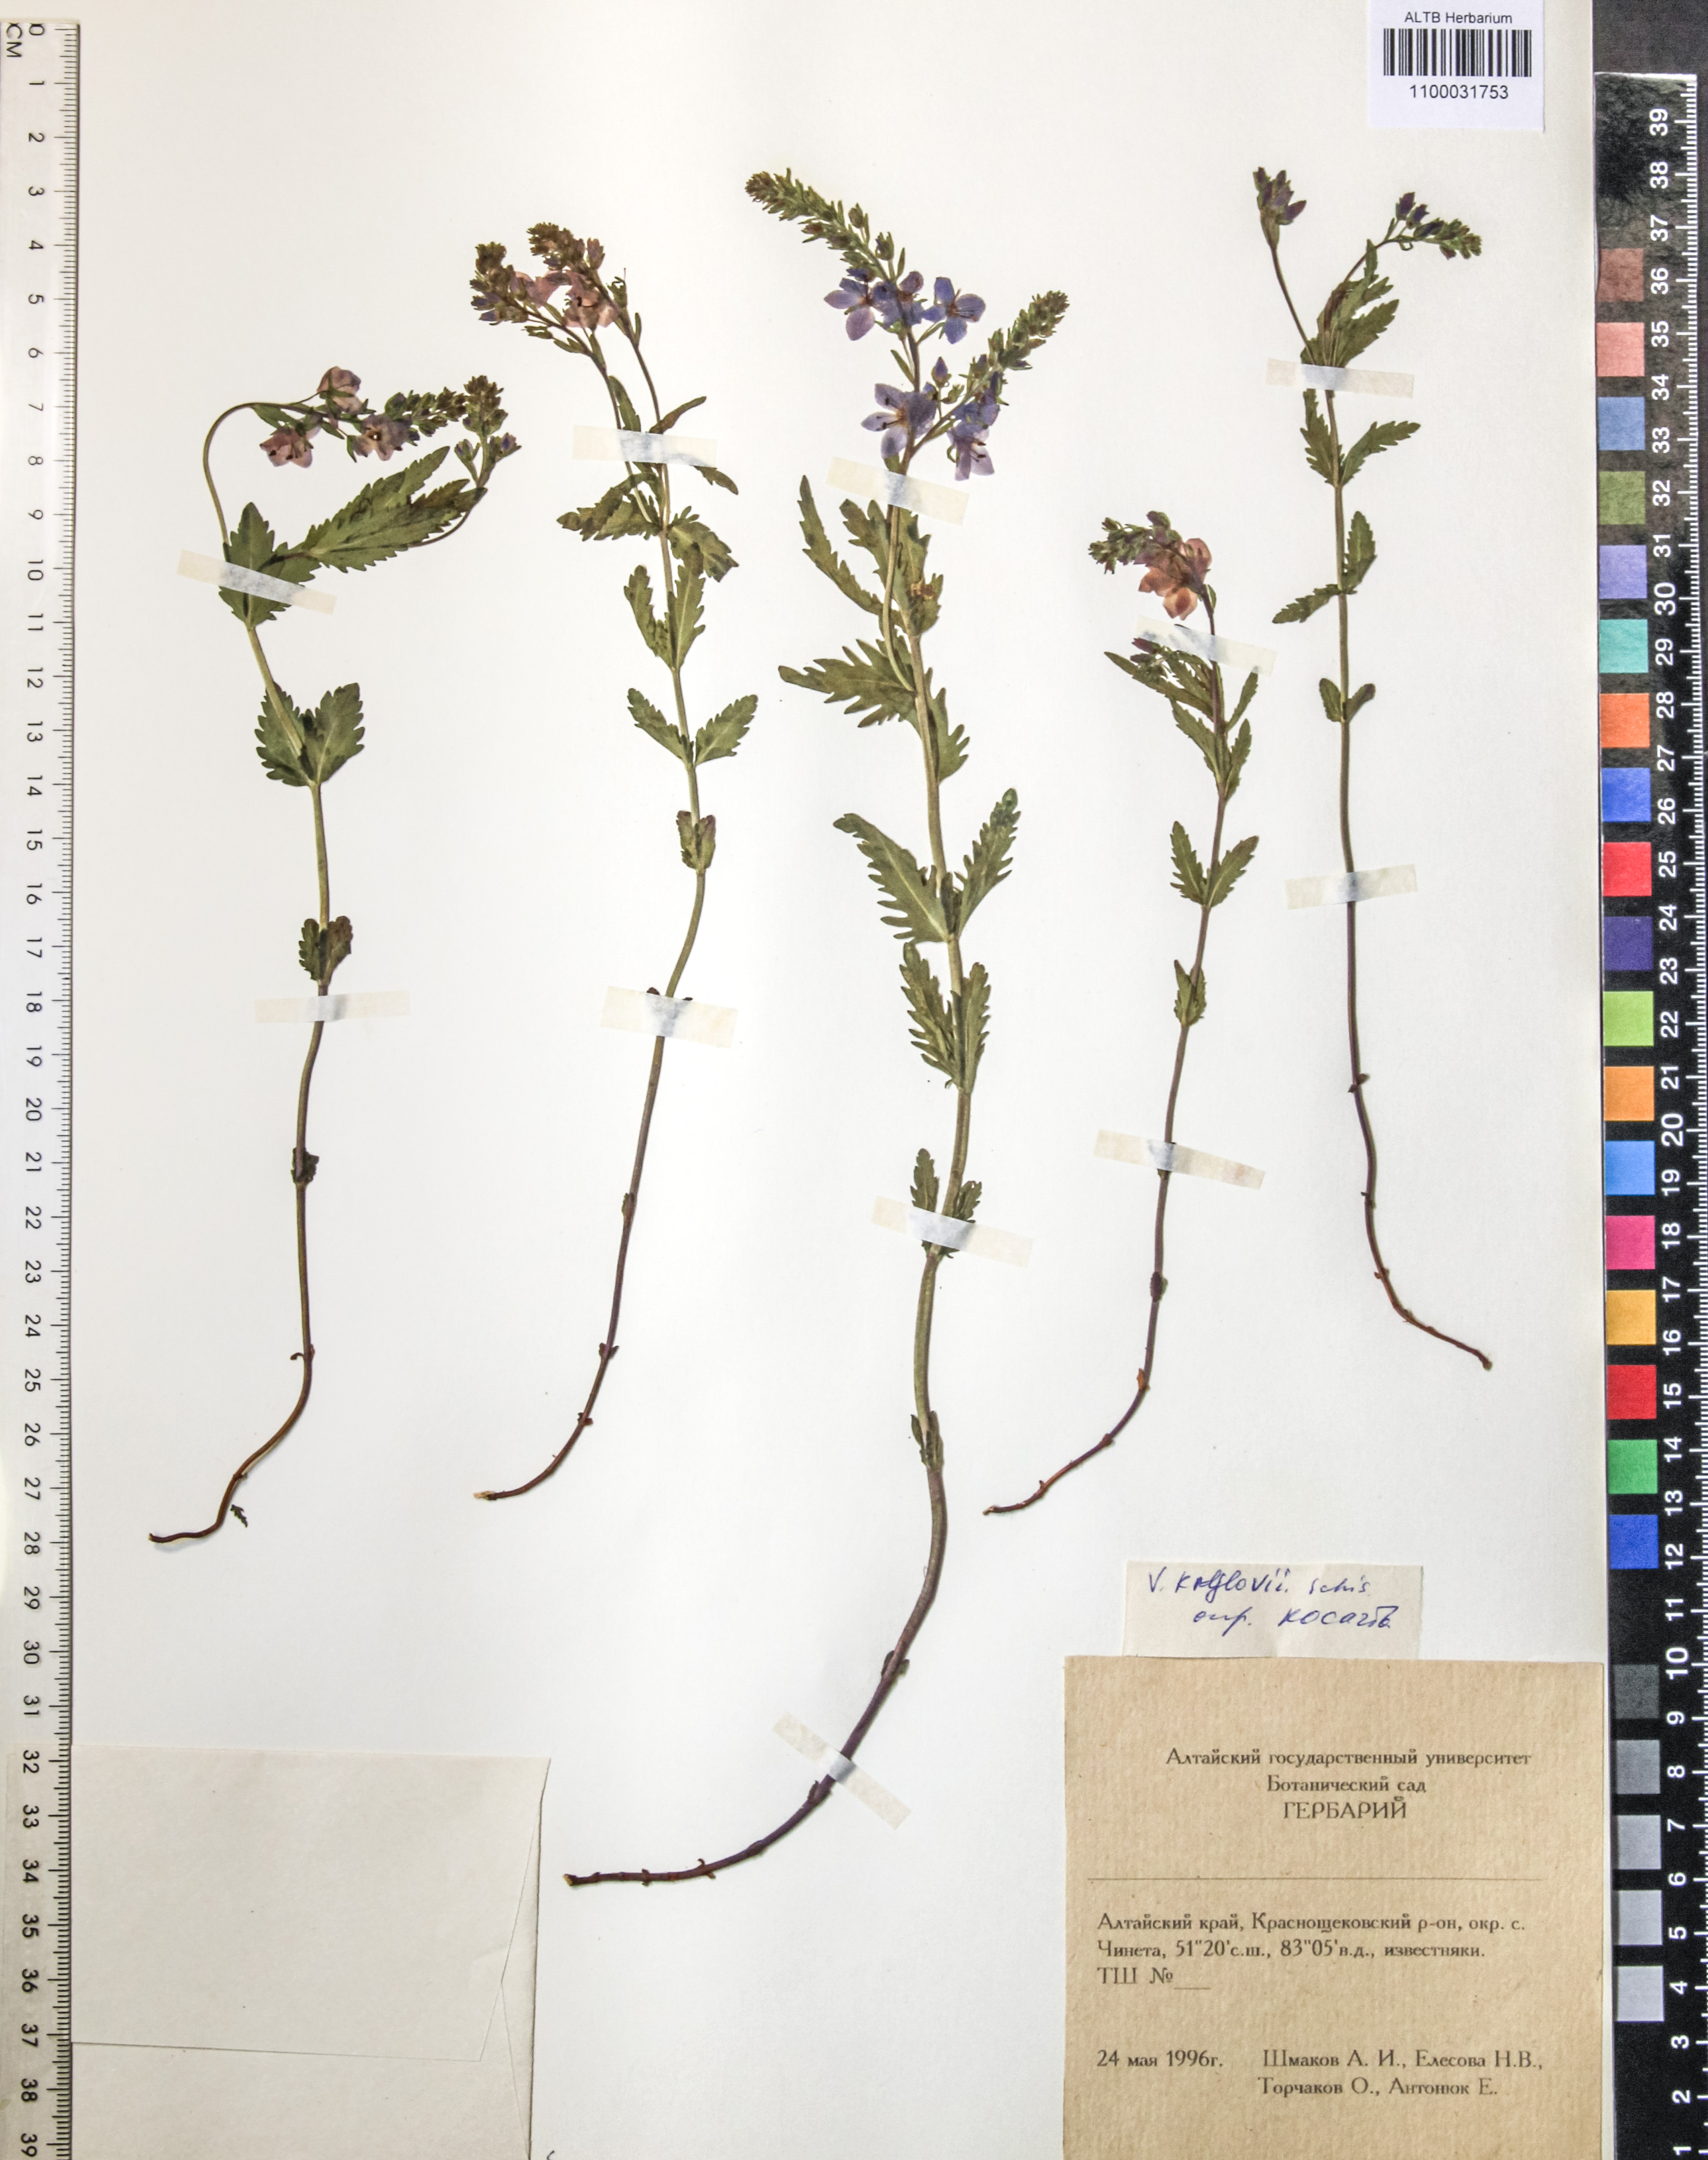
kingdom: Plantae
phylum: Tracheophyta
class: Magnoliopsida
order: Lamiales
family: Plantaginaceae
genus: Veronica
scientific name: Veronica krylovii
